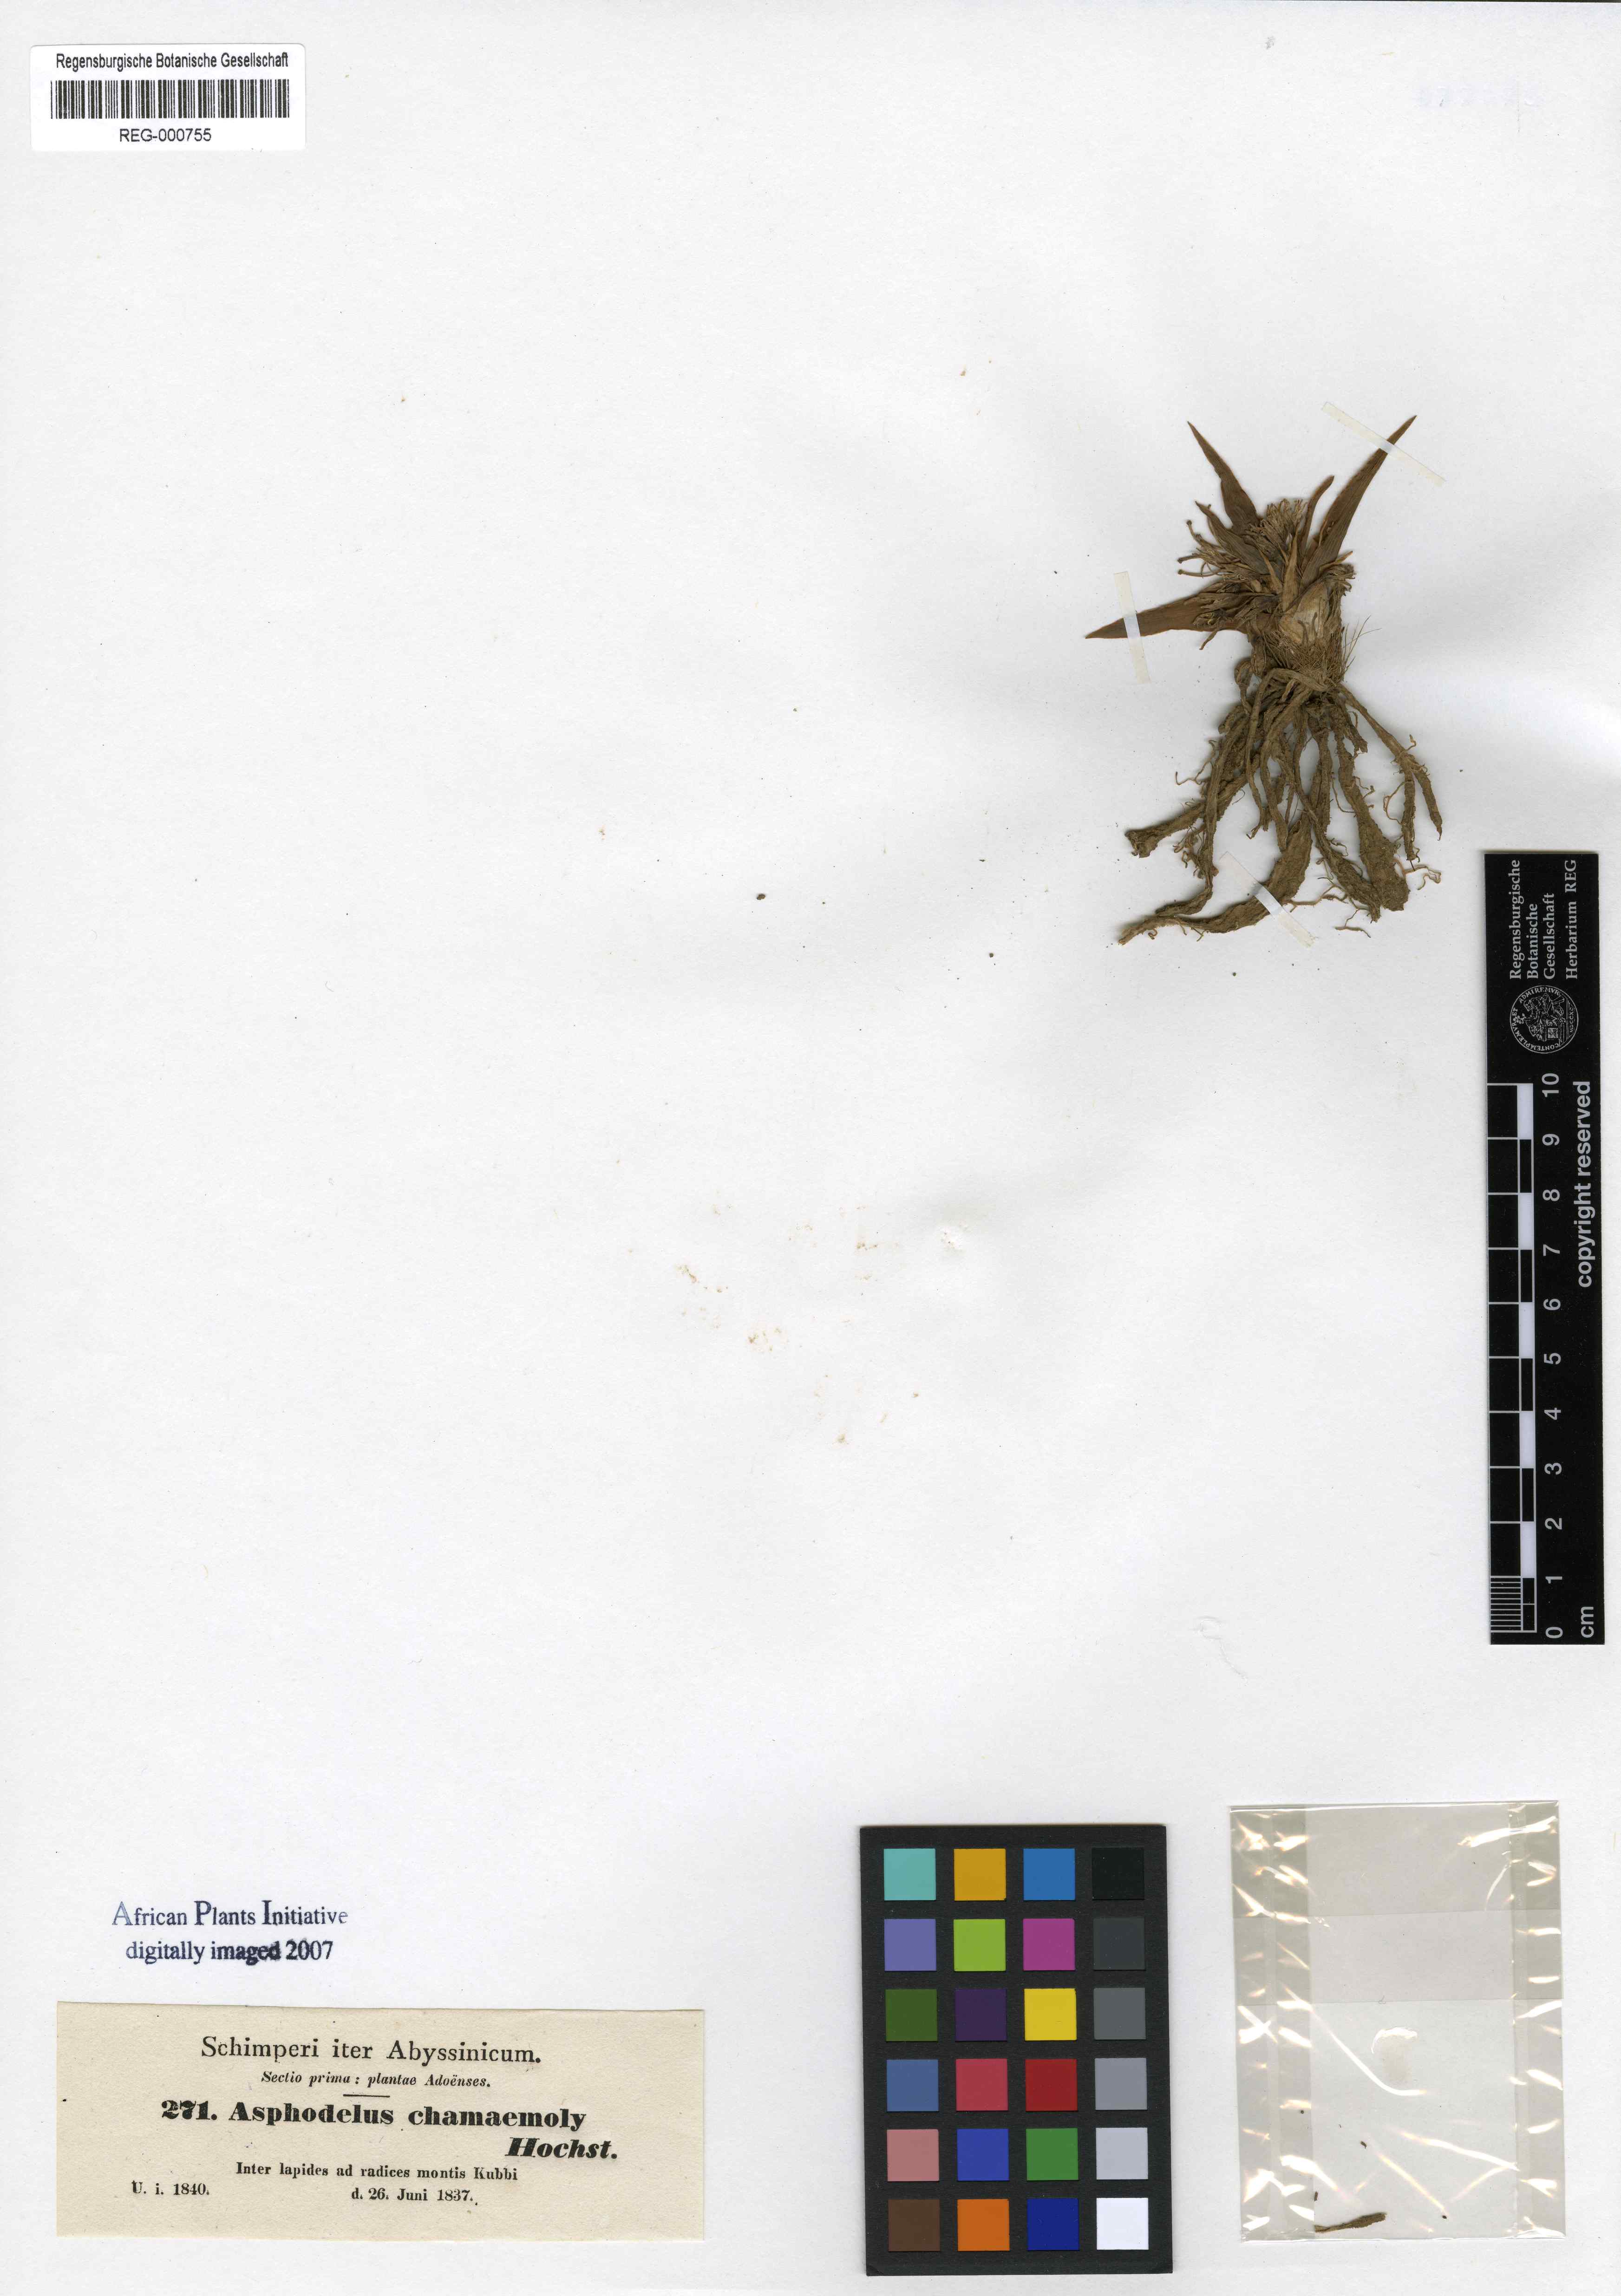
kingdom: Plantae
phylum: Tracheophyta
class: Liliopsida
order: Asparagales
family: Asparagaceae
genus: Chlorophytum
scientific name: Chlorophytum tetraphyllum
